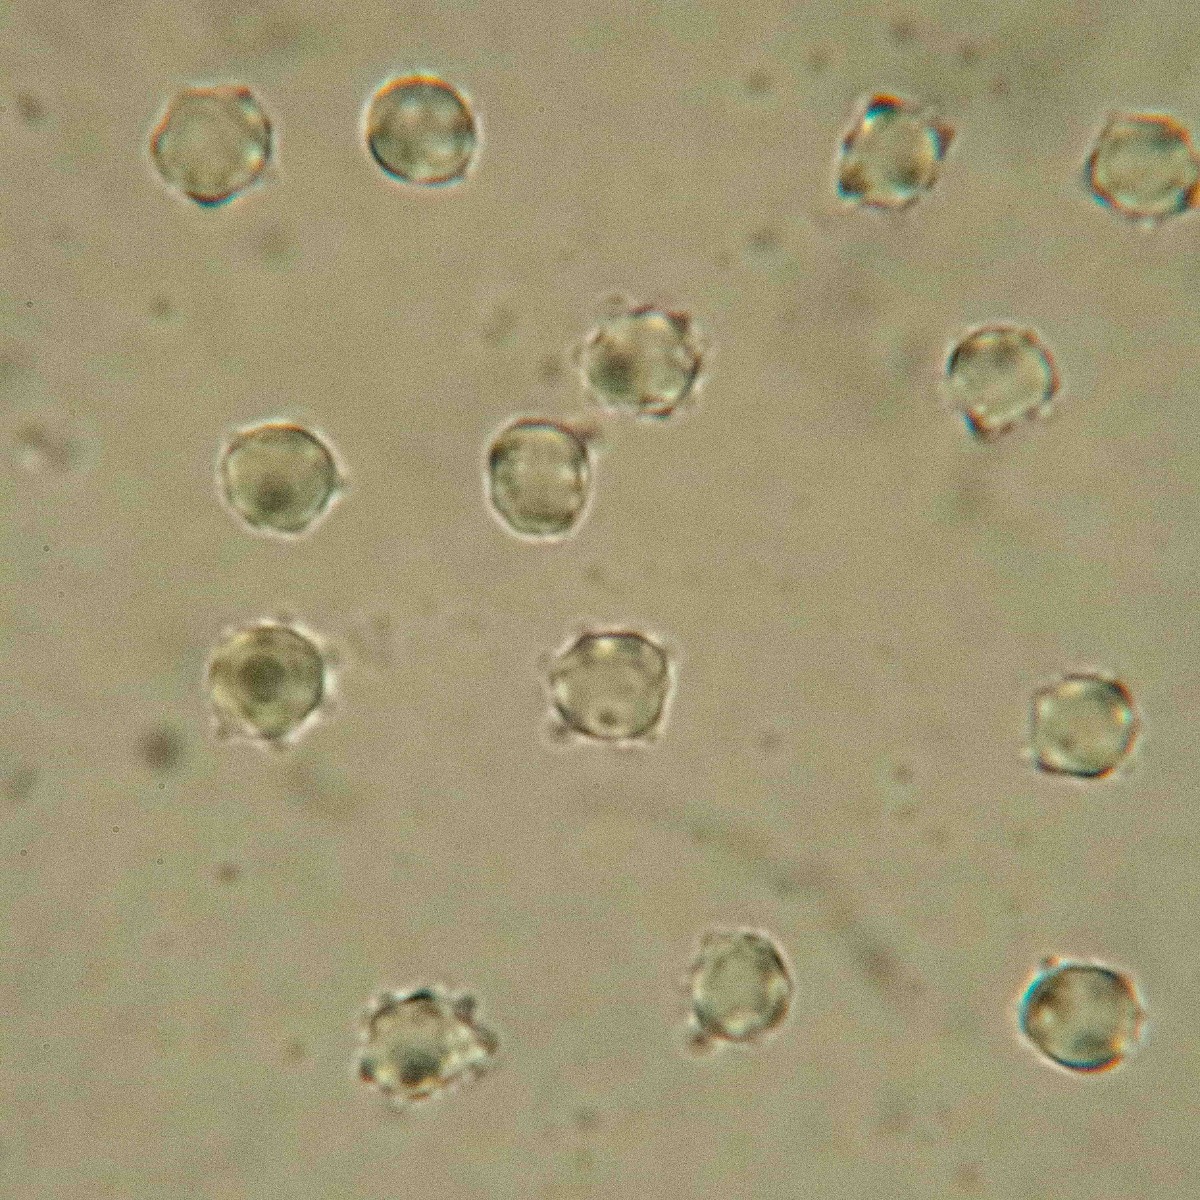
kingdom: Fungi
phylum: Basidiomycota
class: Agaricomycetes
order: Agaricales
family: Clavariaceae
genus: Clavulinopsis
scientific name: Clavulinopsis helvola
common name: orangegul køllesvamp
